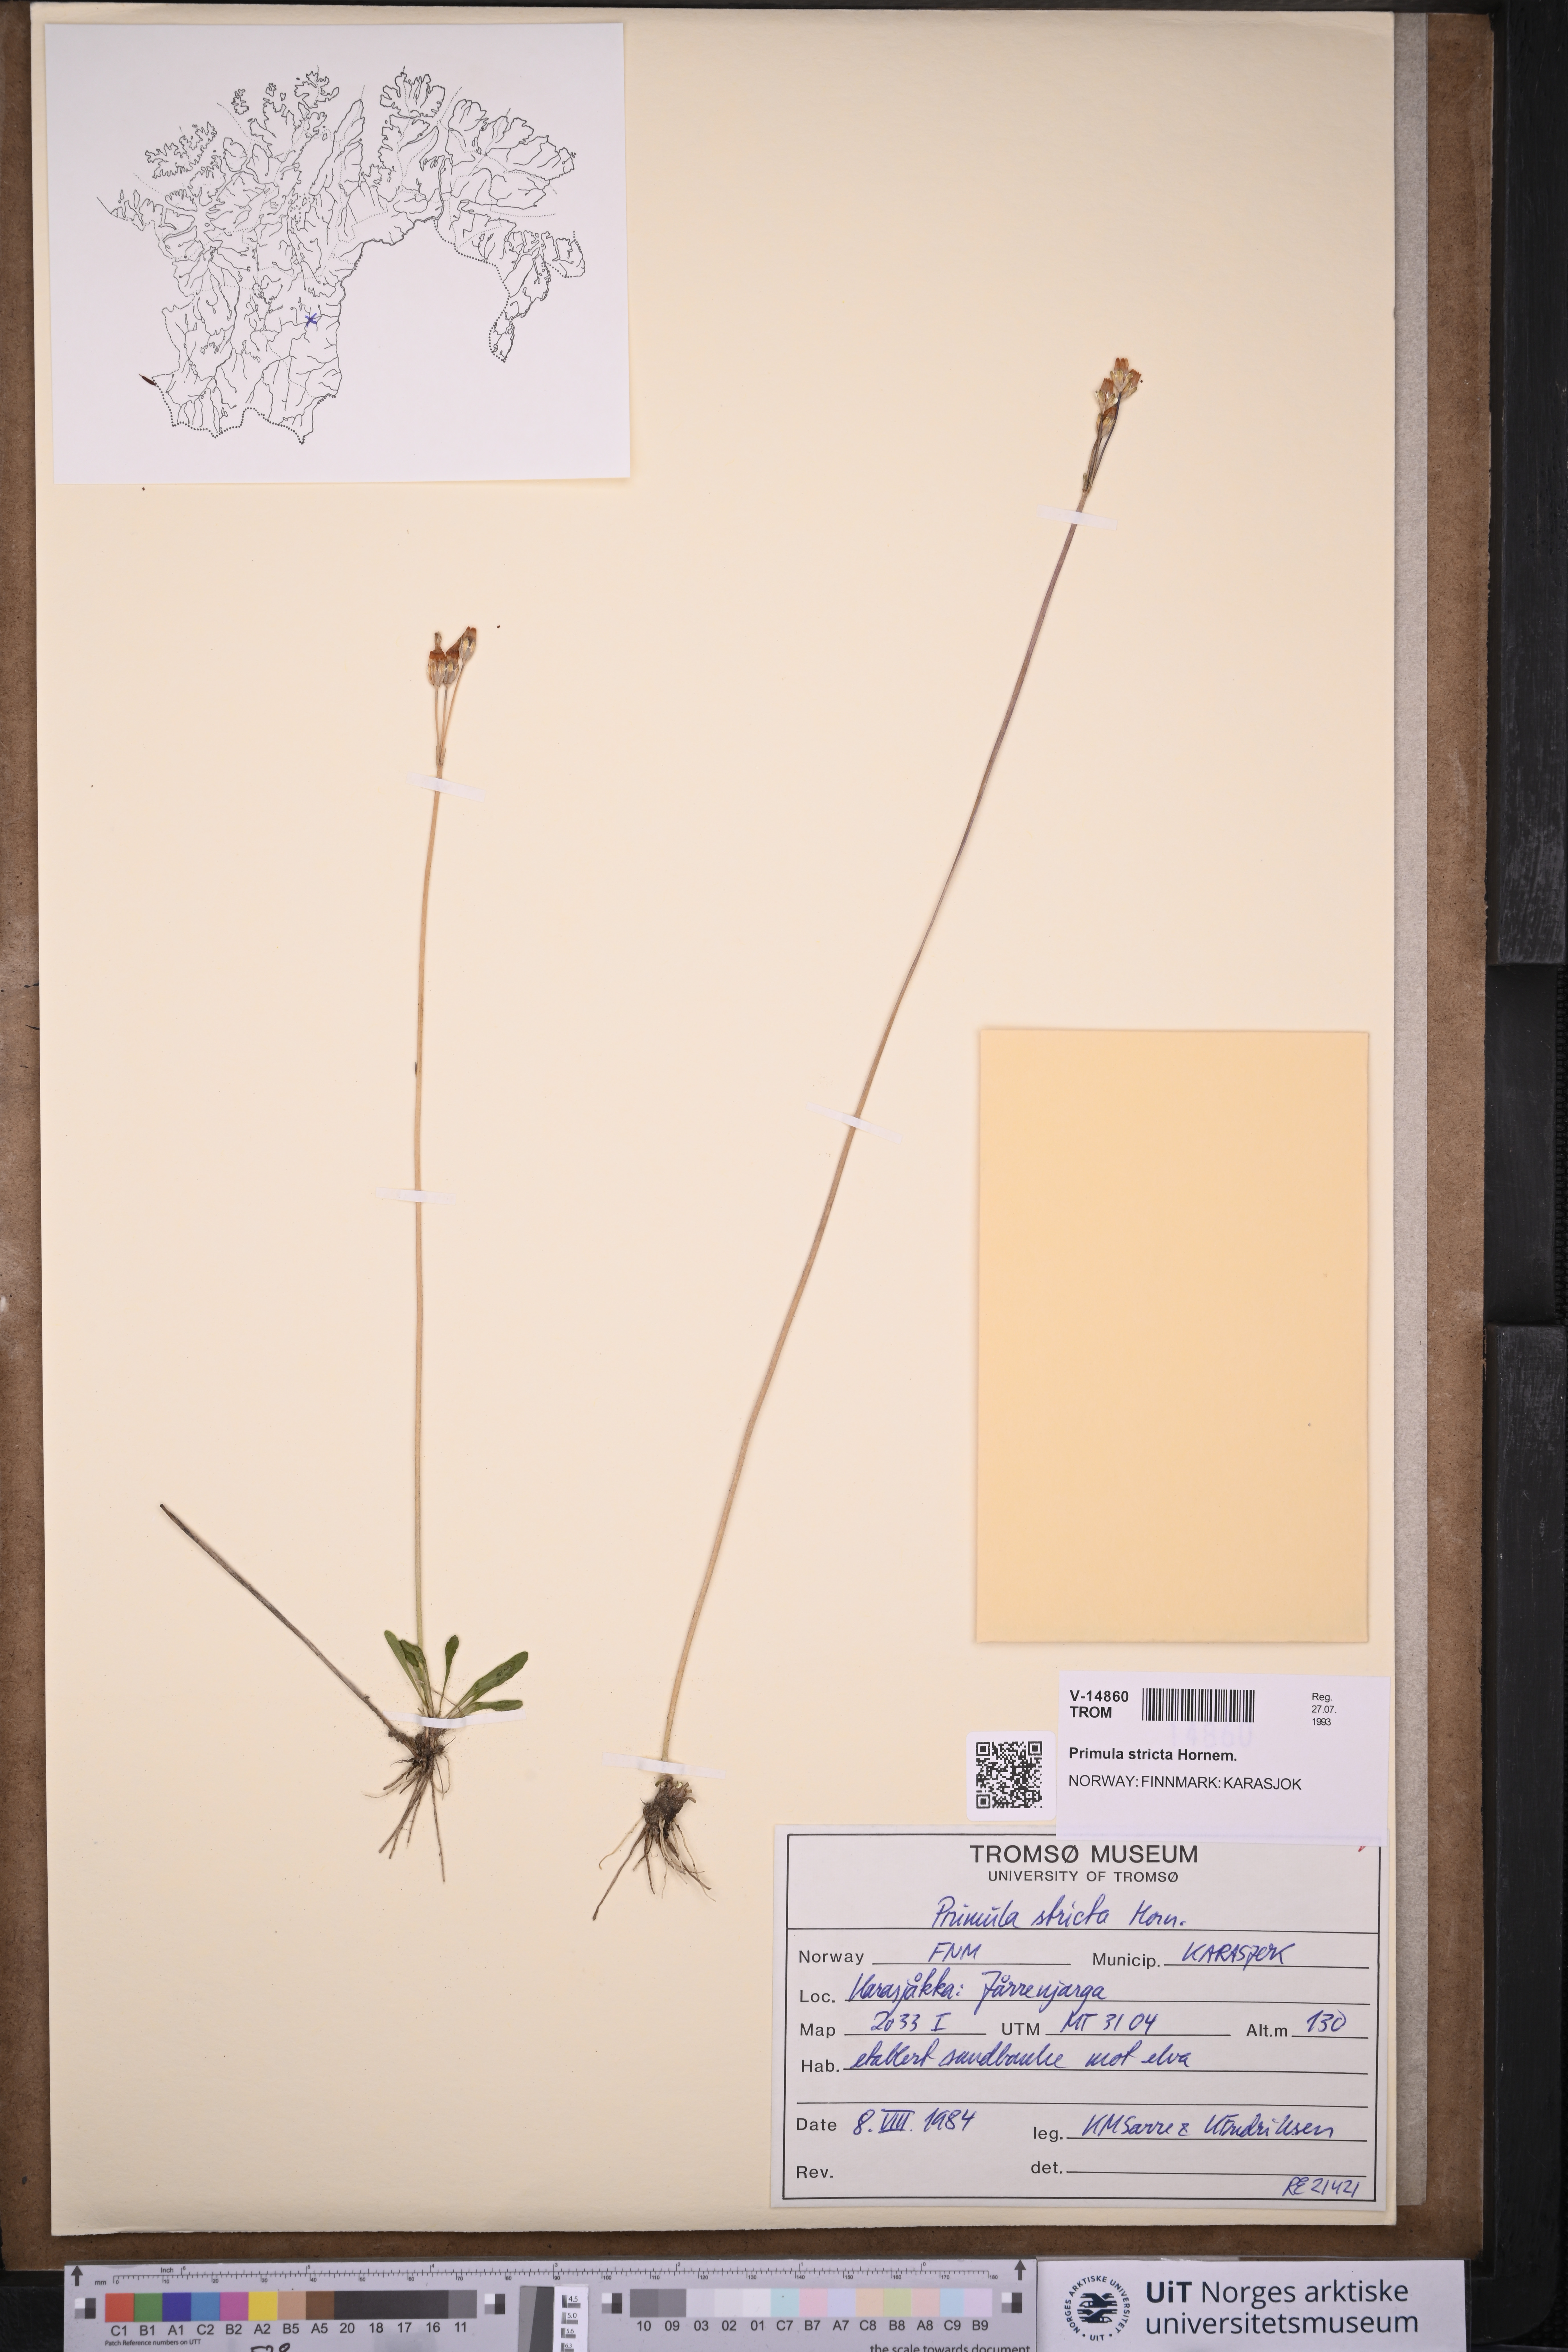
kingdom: Plantae
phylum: Tracheophyta
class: Magnoliopsida
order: Ericales
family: Primulaceae
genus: Primula
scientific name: Primula stricta
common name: Coastal primrose
